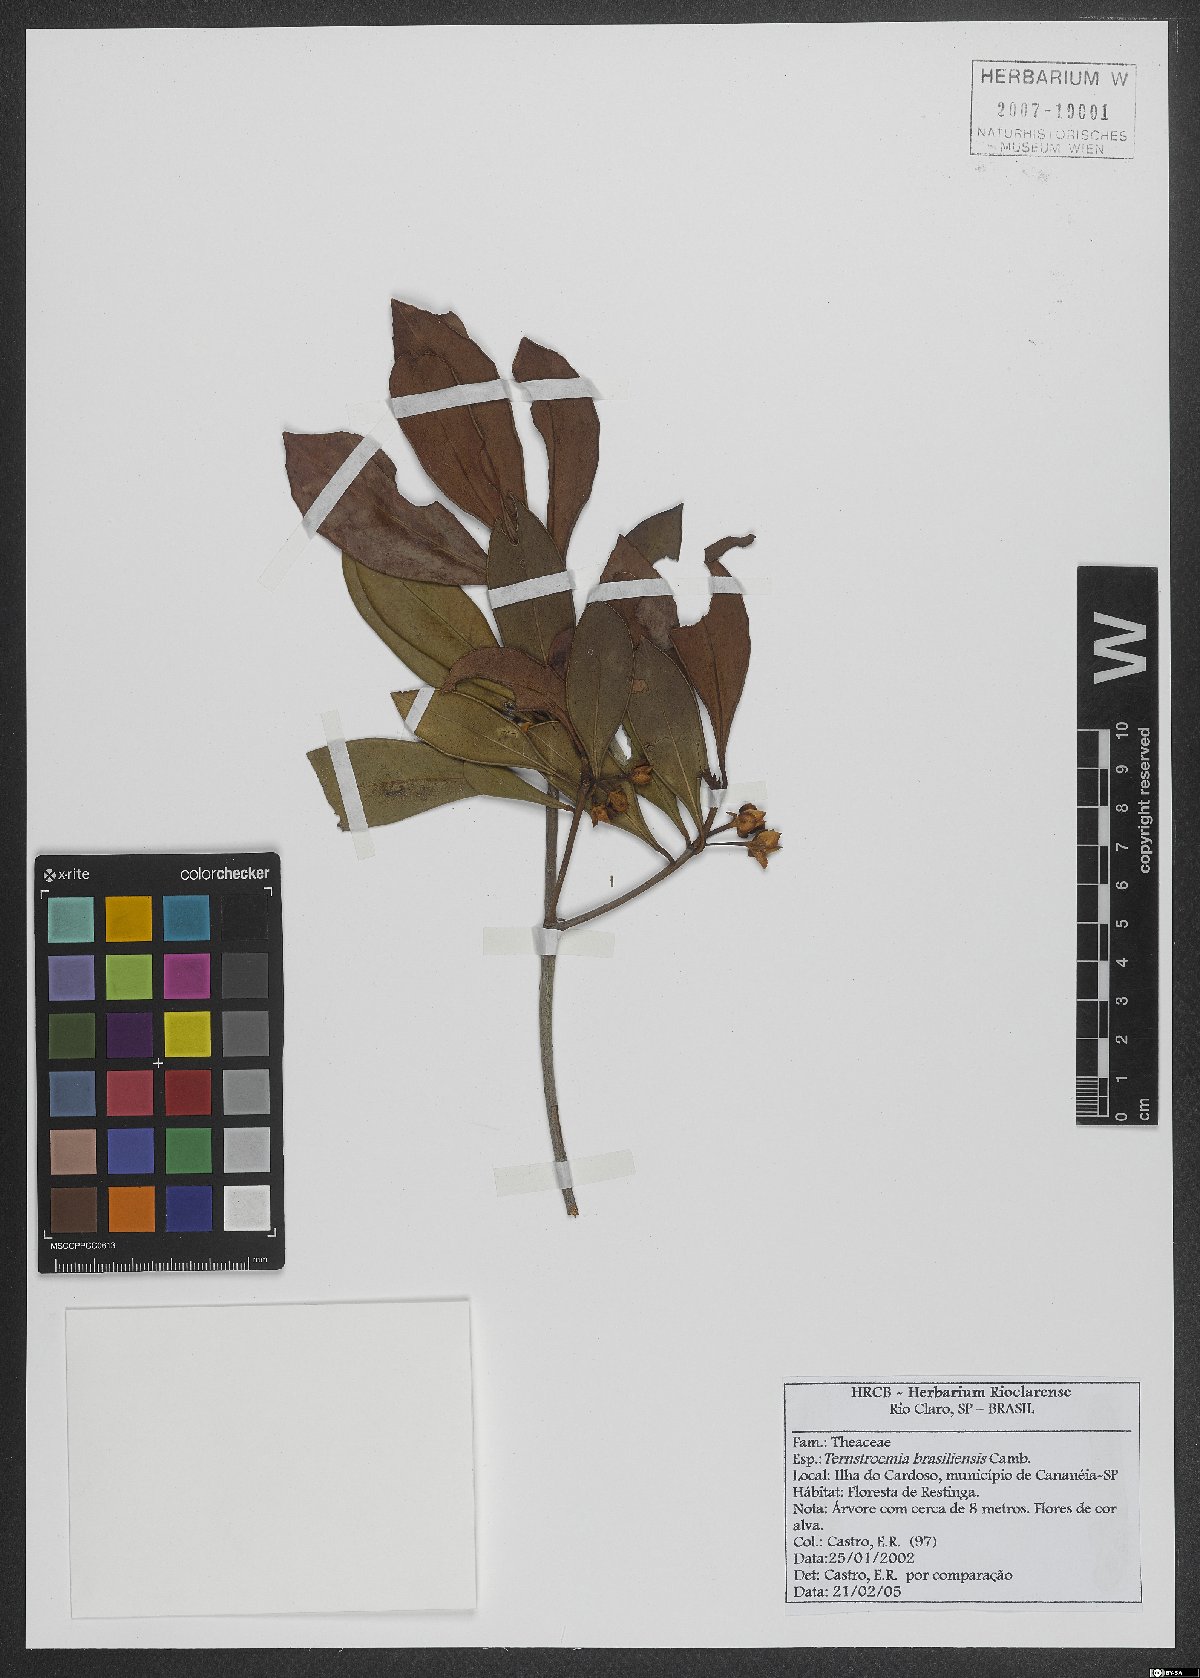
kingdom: Plantae
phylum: Tracheophyta
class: Magnoliopsida
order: Ericales
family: Pentaphylacaceae
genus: Ternstroemia
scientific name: Ternstroemia brasiliensis
